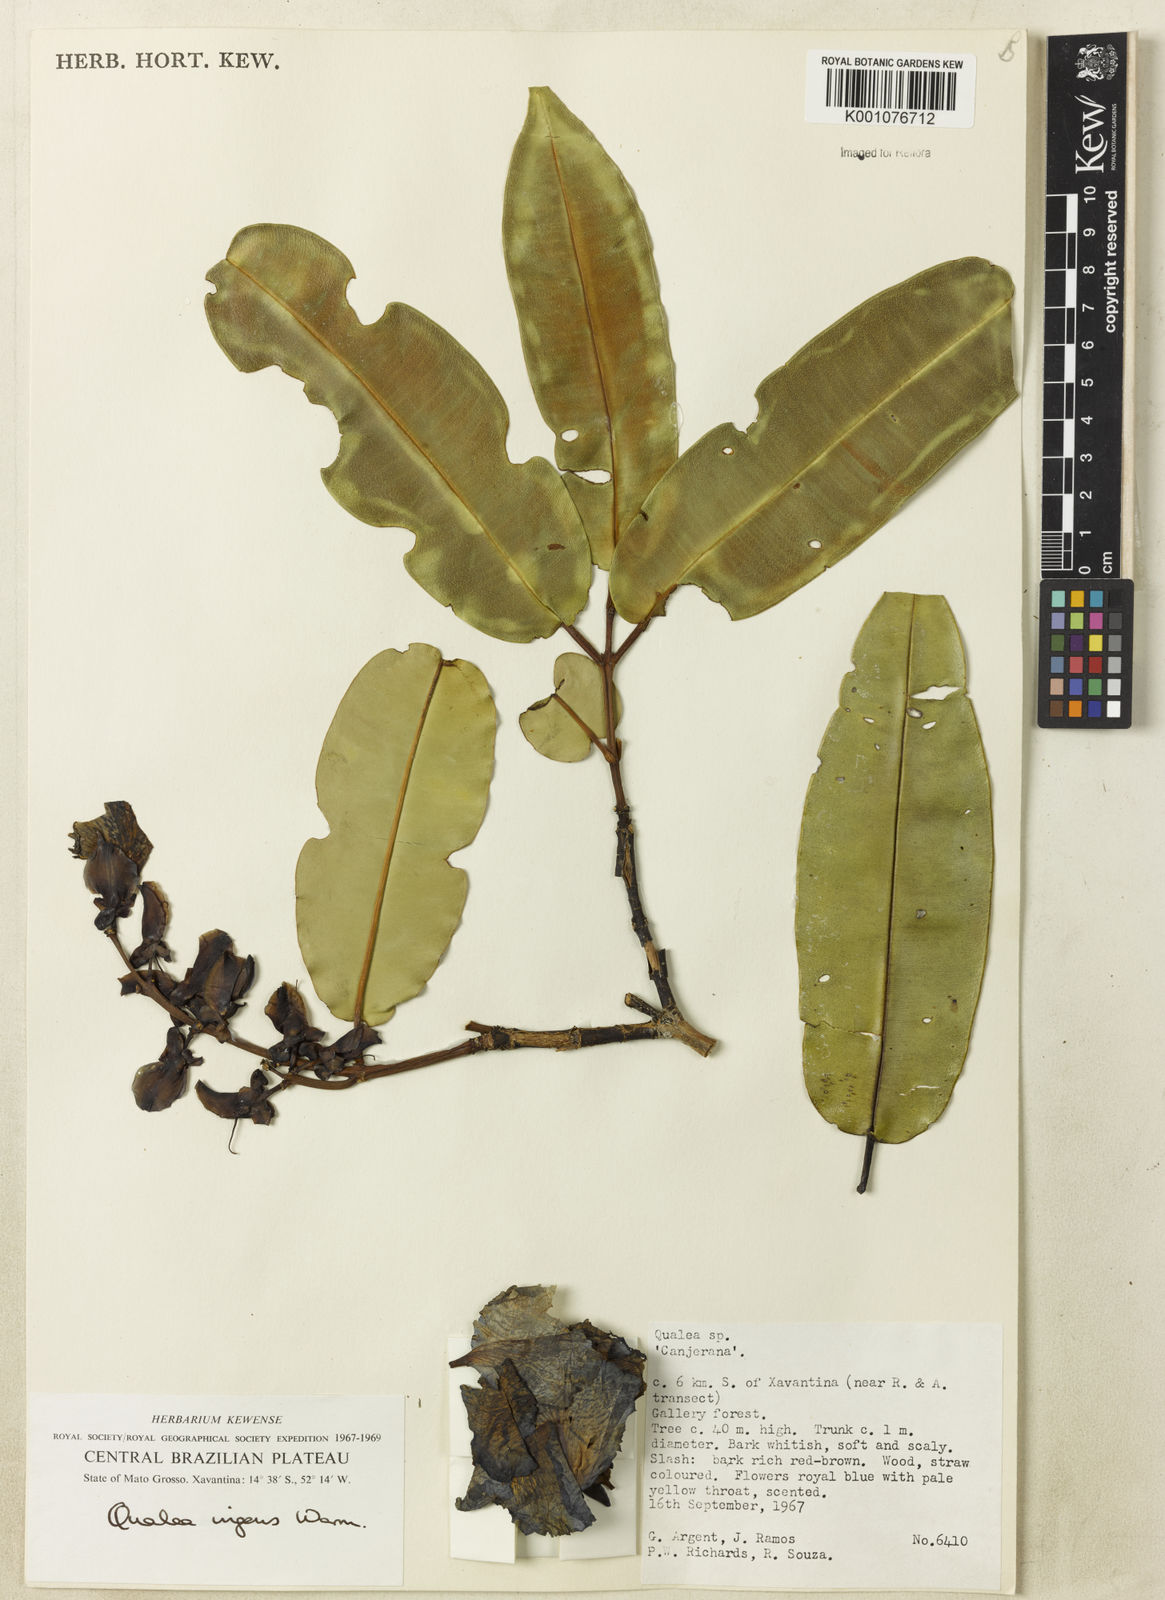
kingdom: Plantae
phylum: Tracheophyta
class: Magnoliopsida
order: Myrtales
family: Vochysiaceae
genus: Qualea
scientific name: Qualea ingens
